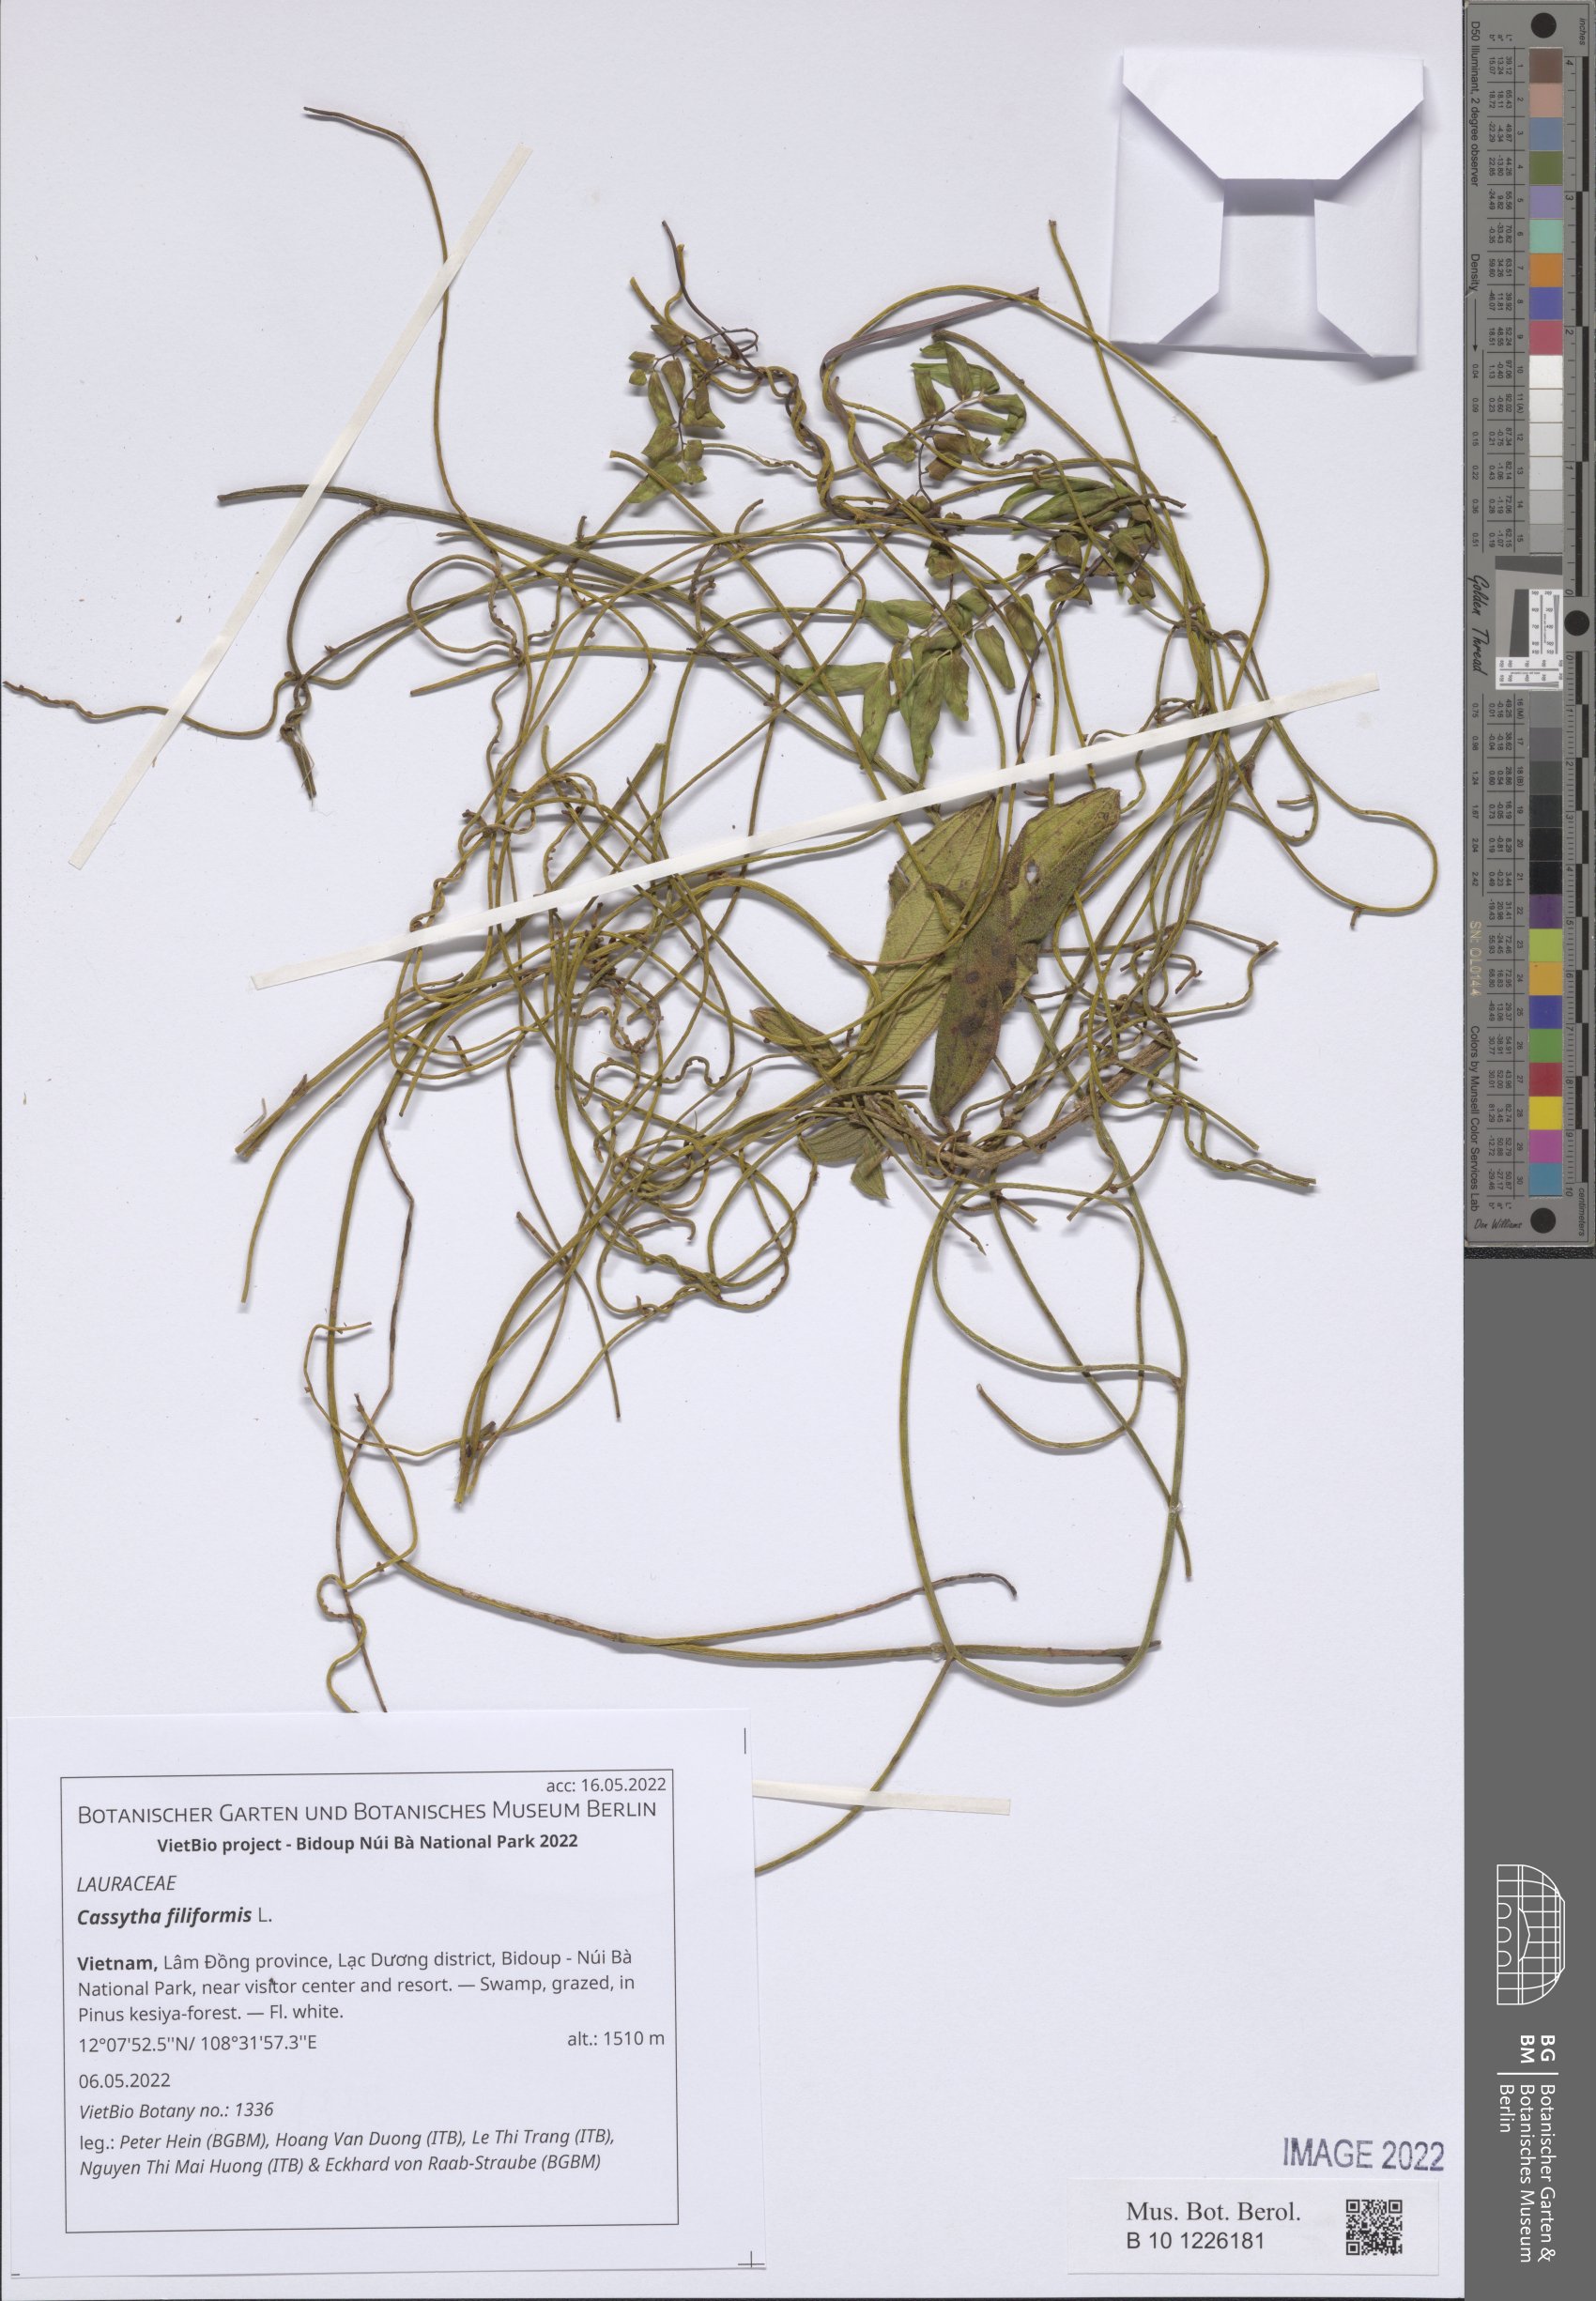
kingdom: Plantae
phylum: Tracheophyta
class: Magnoliopsida
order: Laurales
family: Lauraceae
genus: Cassytha
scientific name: Cassytha filiformis
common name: Dodder-laurel
